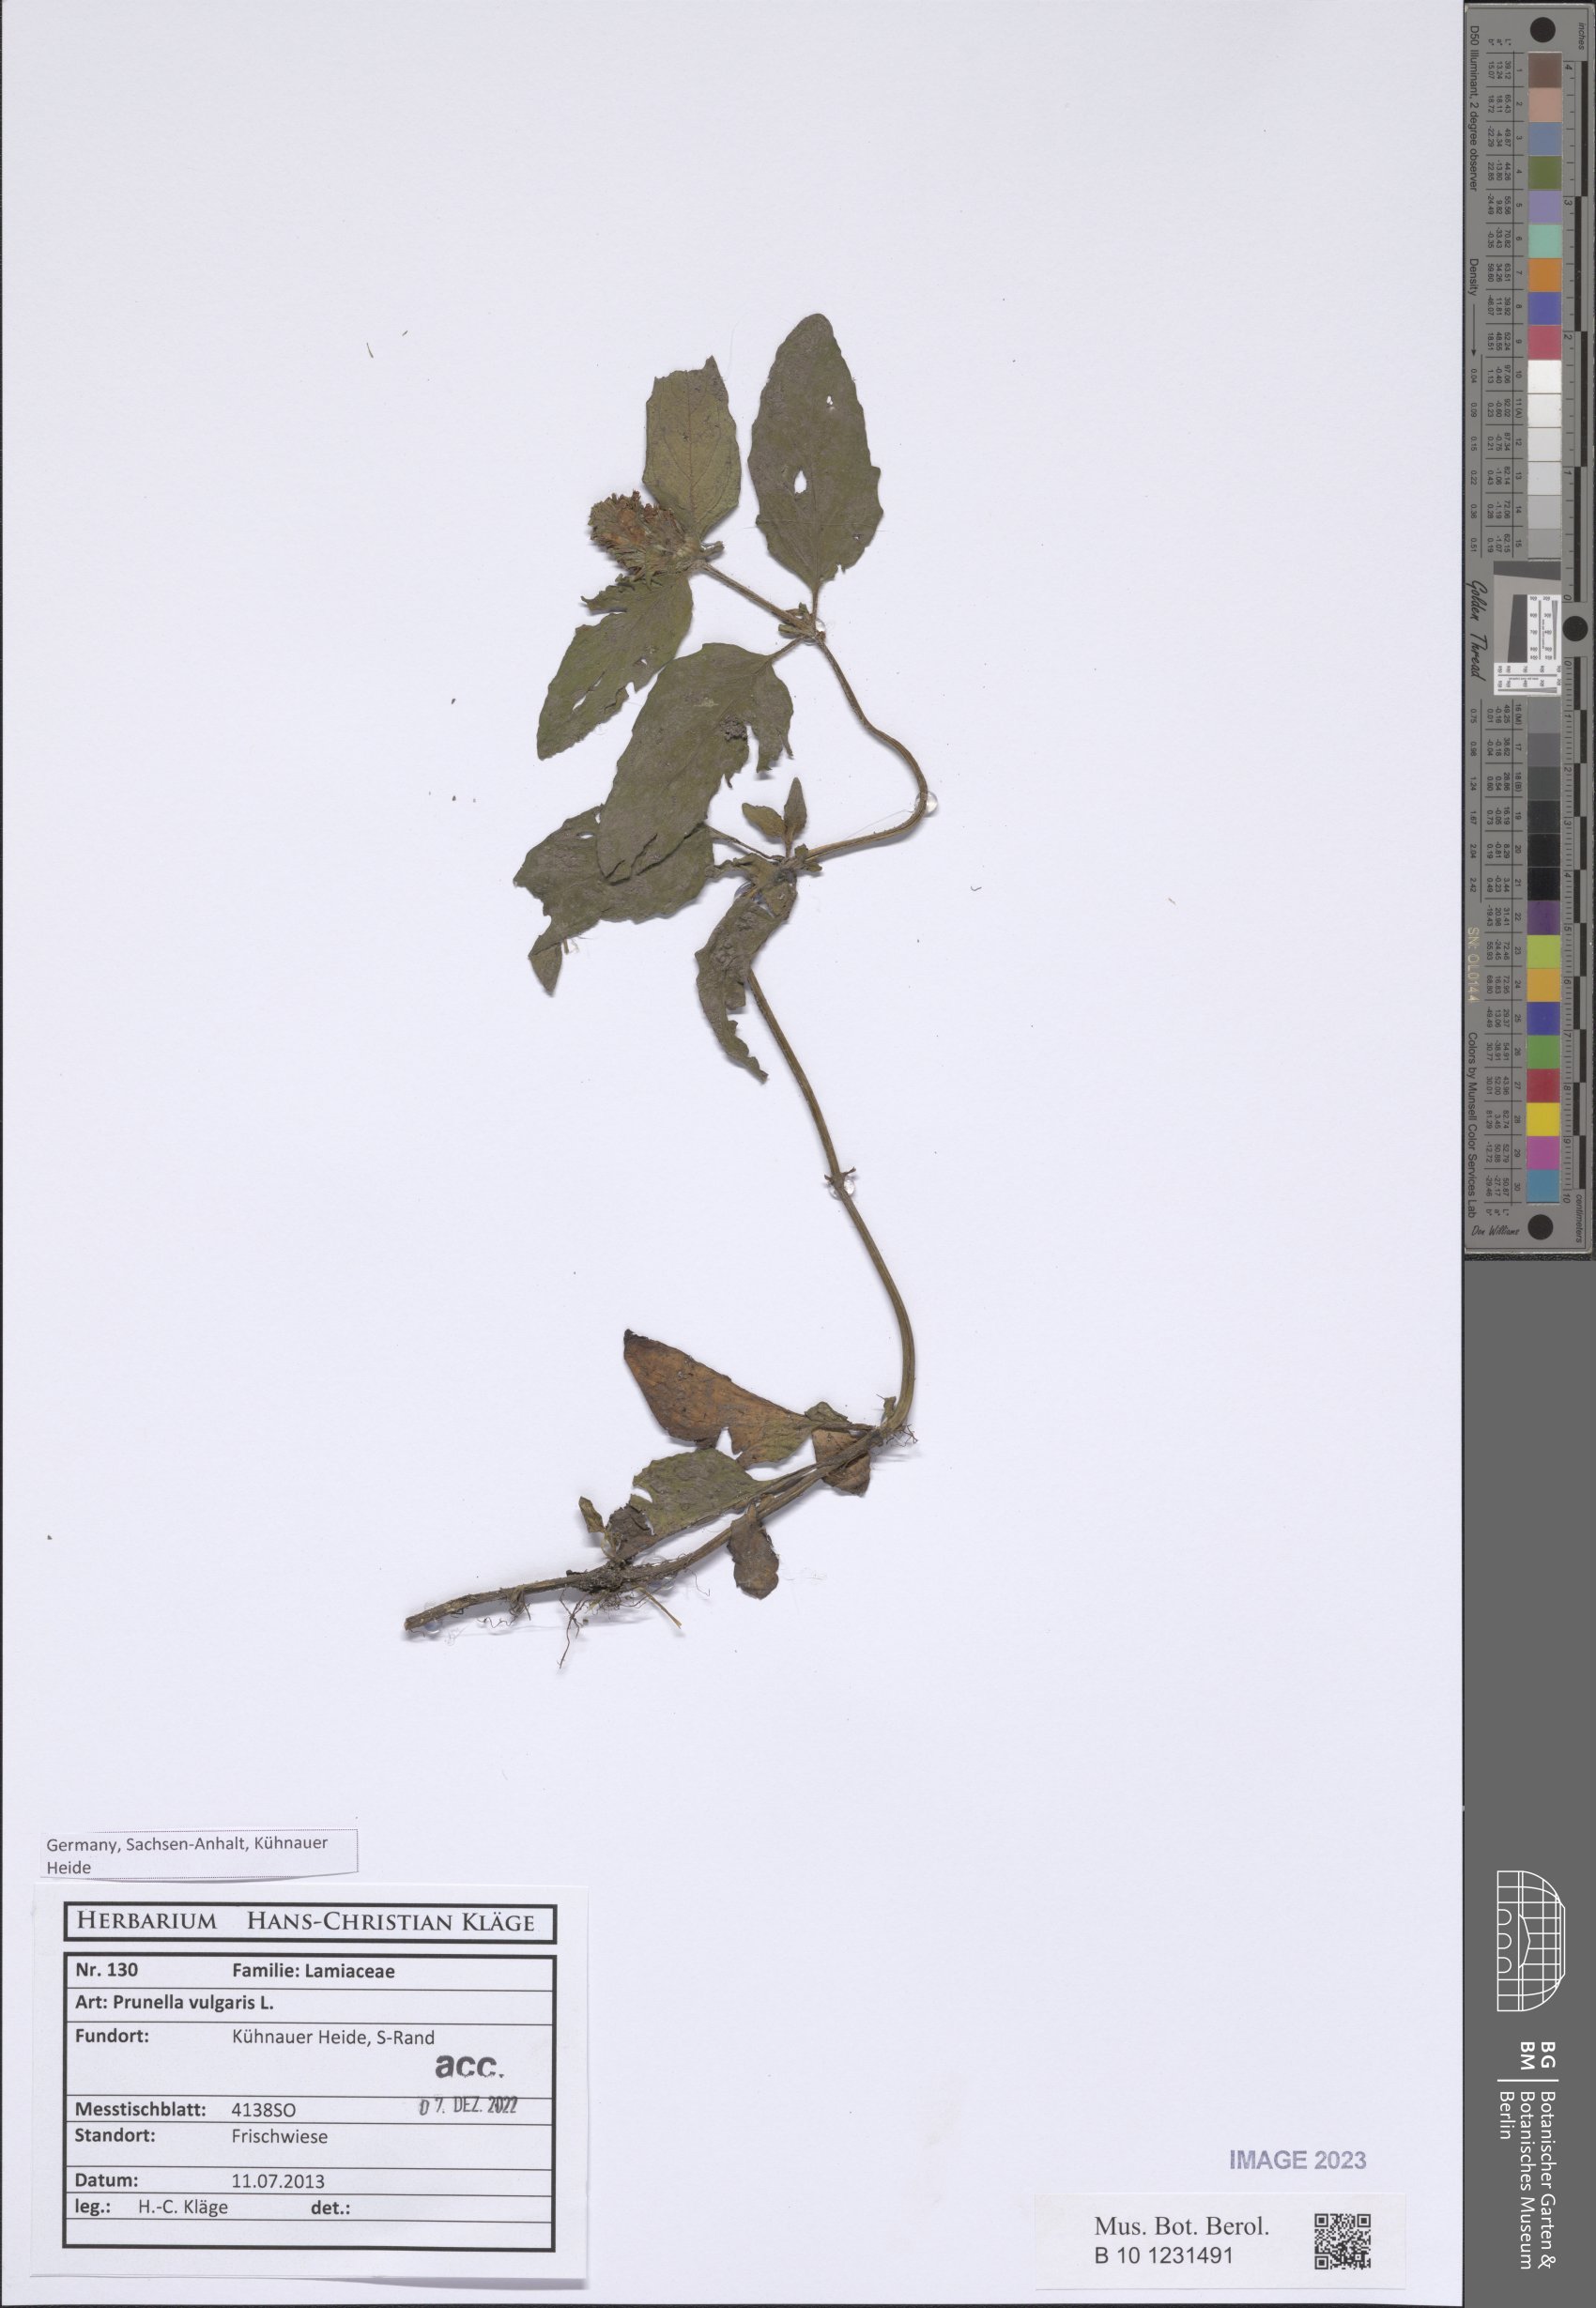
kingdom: Plantae
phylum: Tracheophyta
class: Magnoliopsida
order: Lamiales
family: Lamiaceae
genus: Prunella
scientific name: Prunella vulgaris
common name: Heal-all
